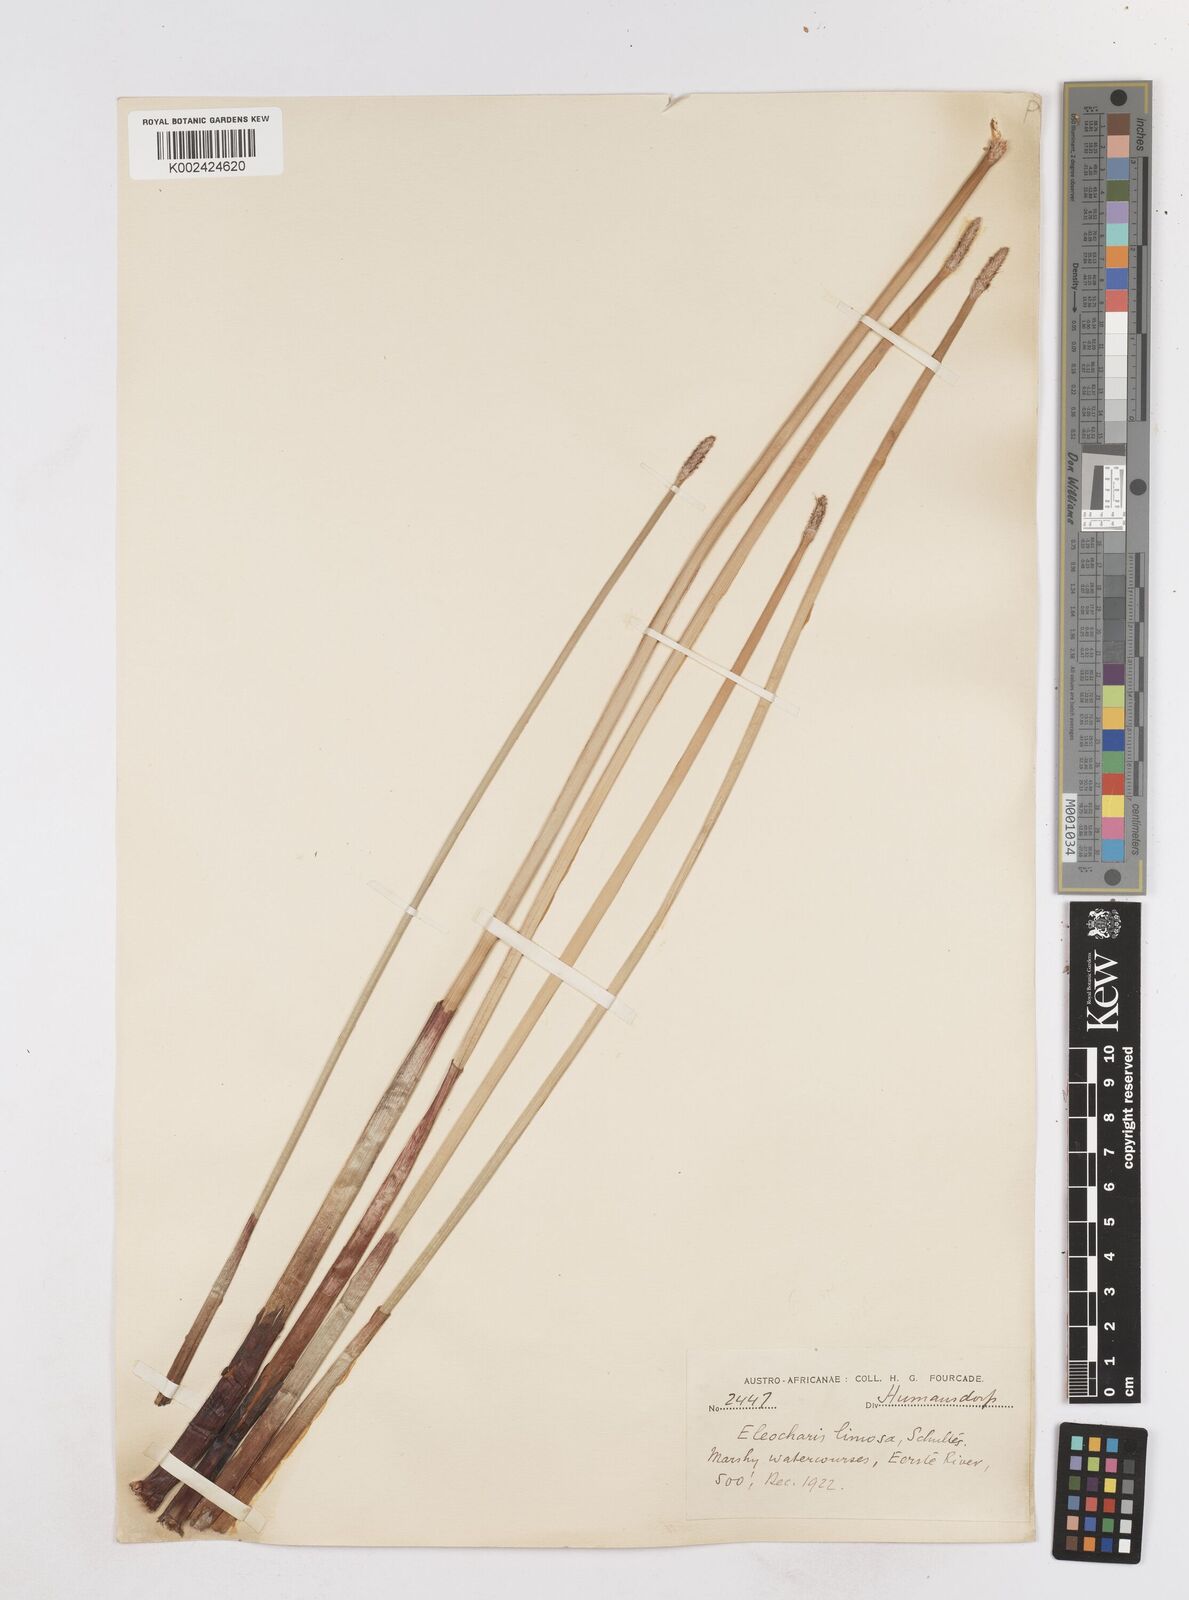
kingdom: Plantae
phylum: Tracheophyta
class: Liliopsida
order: Poales
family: Cyperaceae
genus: Eleocharis
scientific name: Eleocharis limosa
